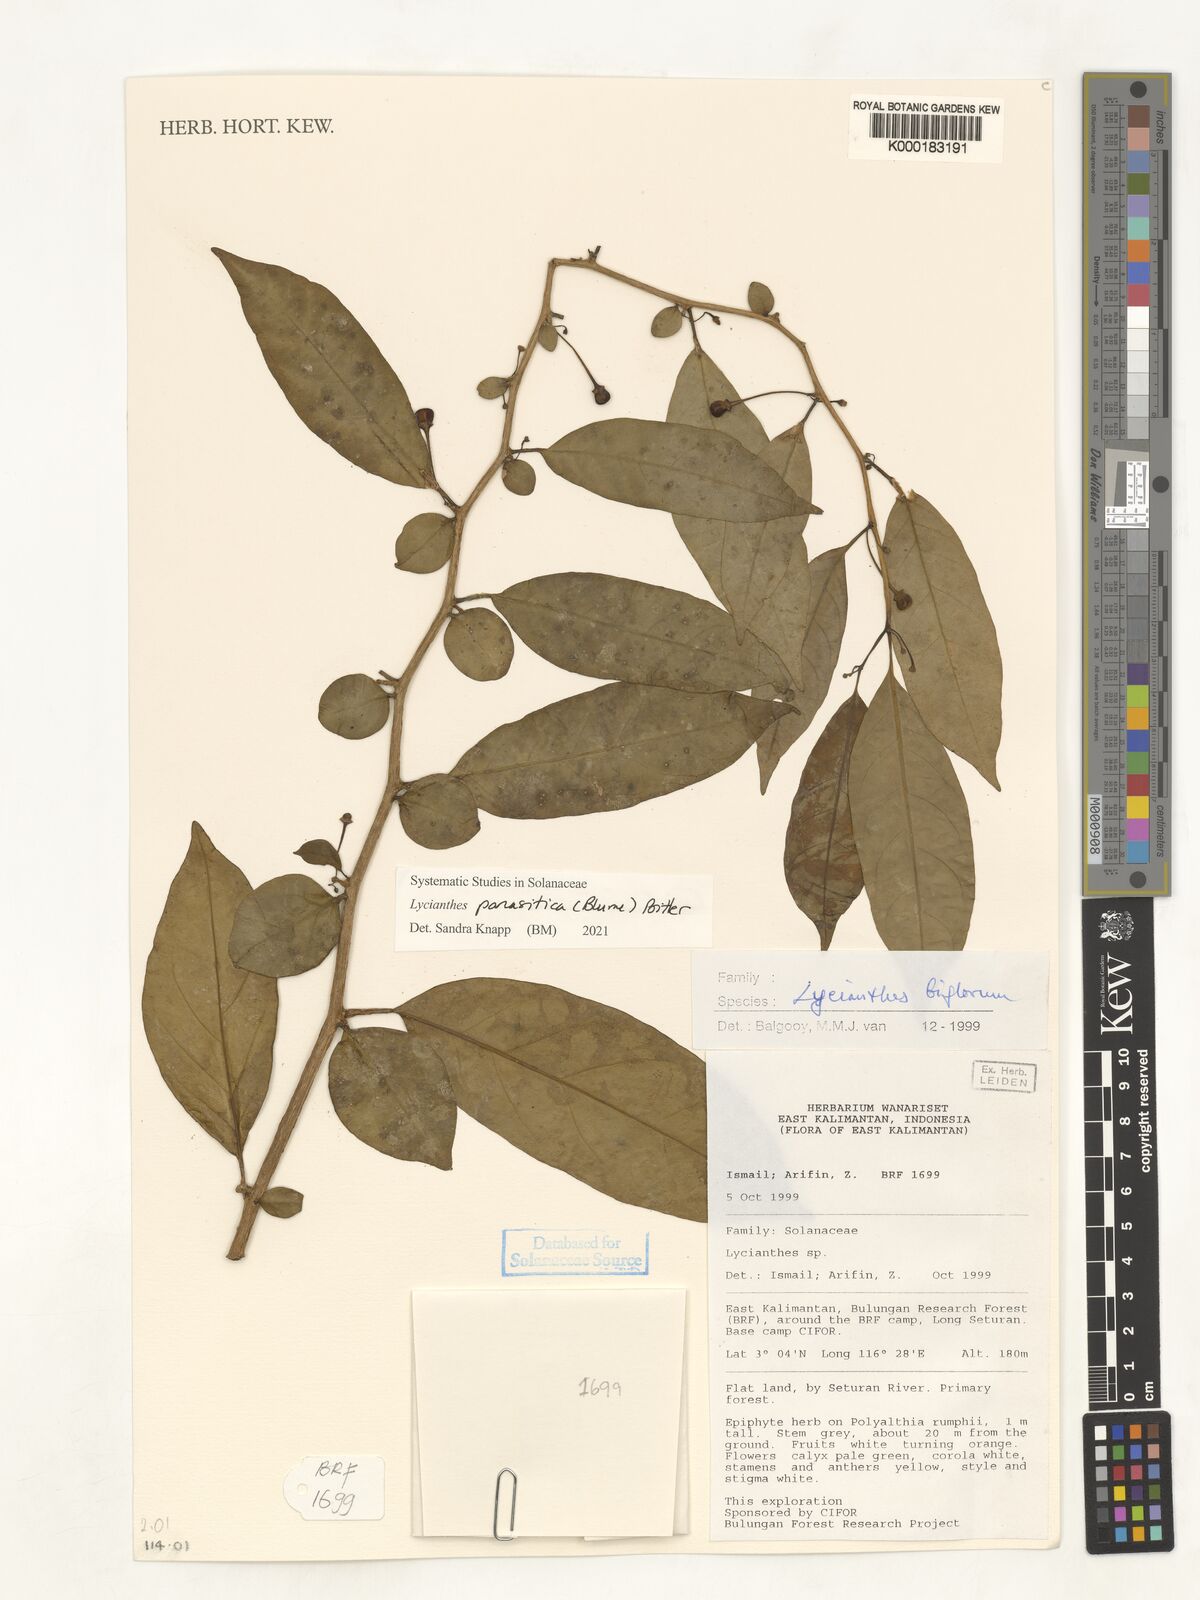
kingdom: Plantae
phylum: Tracheophyta
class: Magnoliopsida
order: Solanales
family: Solanaceae
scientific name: Solanaceae
